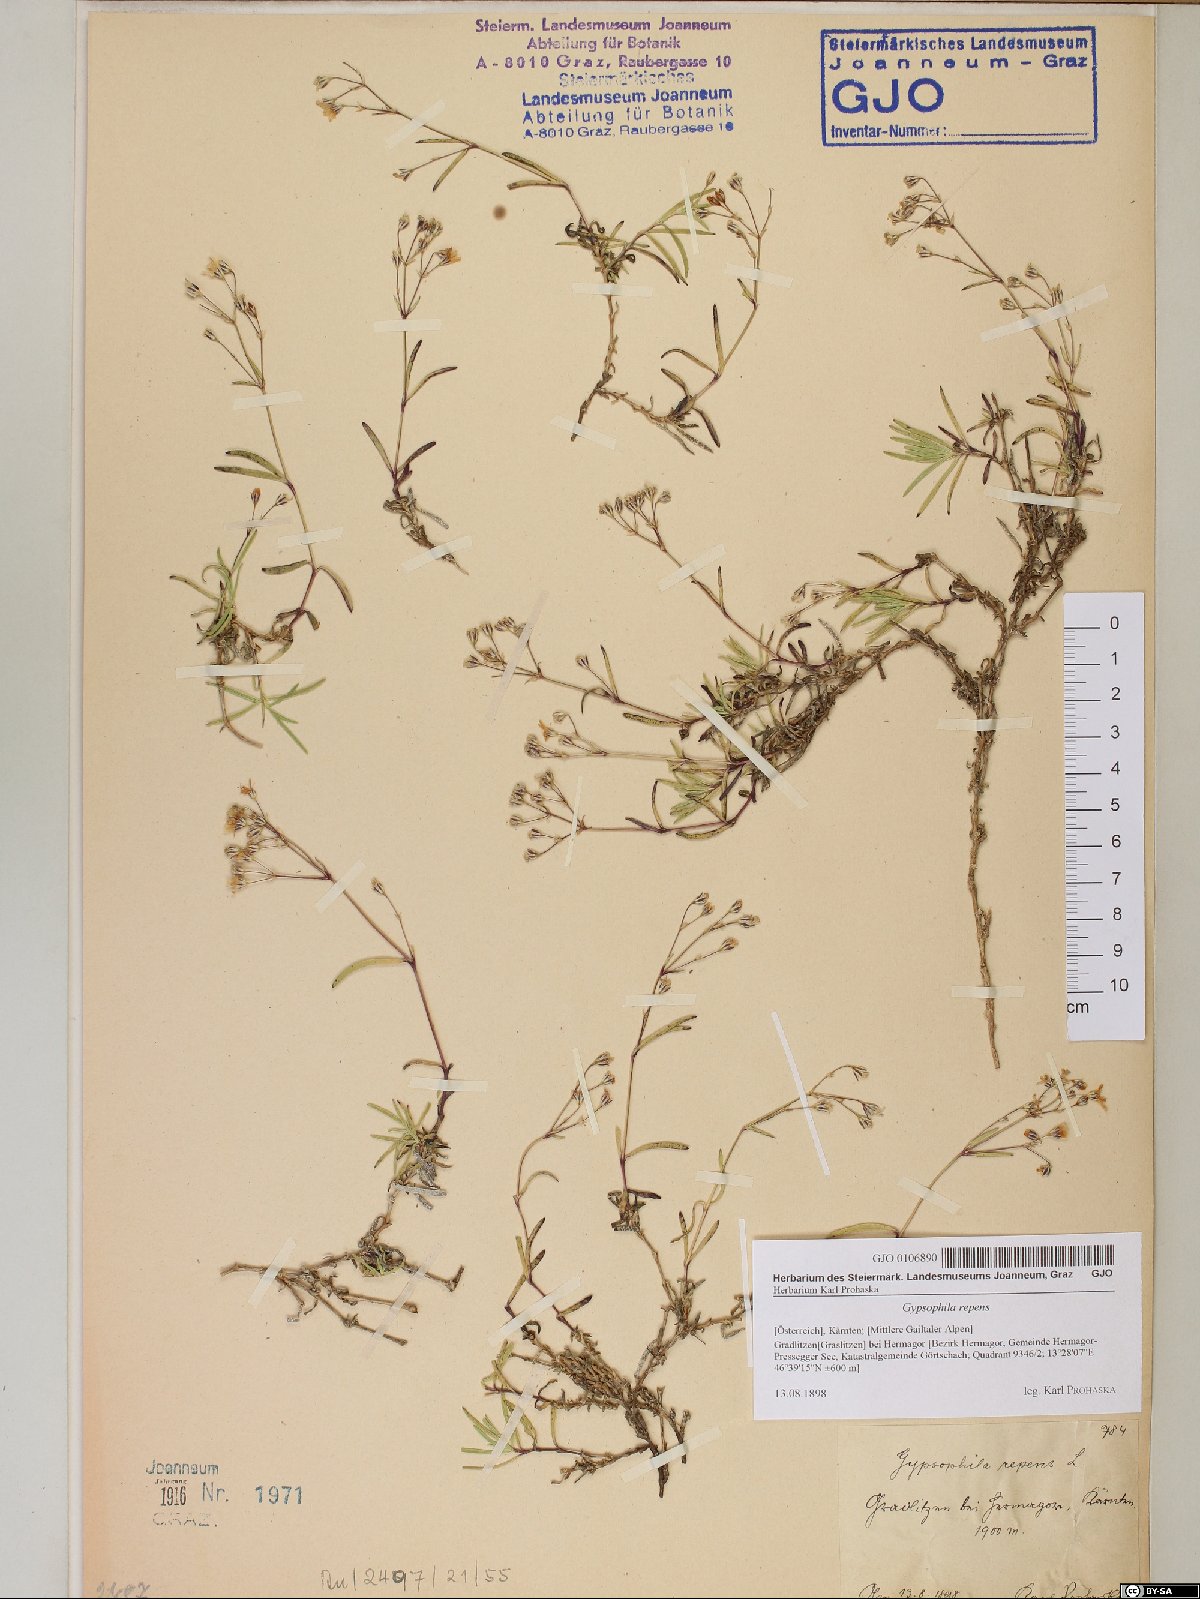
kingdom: Plantae
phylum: Tracheophyta
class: Magnoliopsida
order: Caryophyllales
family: Caryophyllaceae
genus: Gypsophila
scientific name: Gypsophila repens
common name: Creeping baby's-breath
